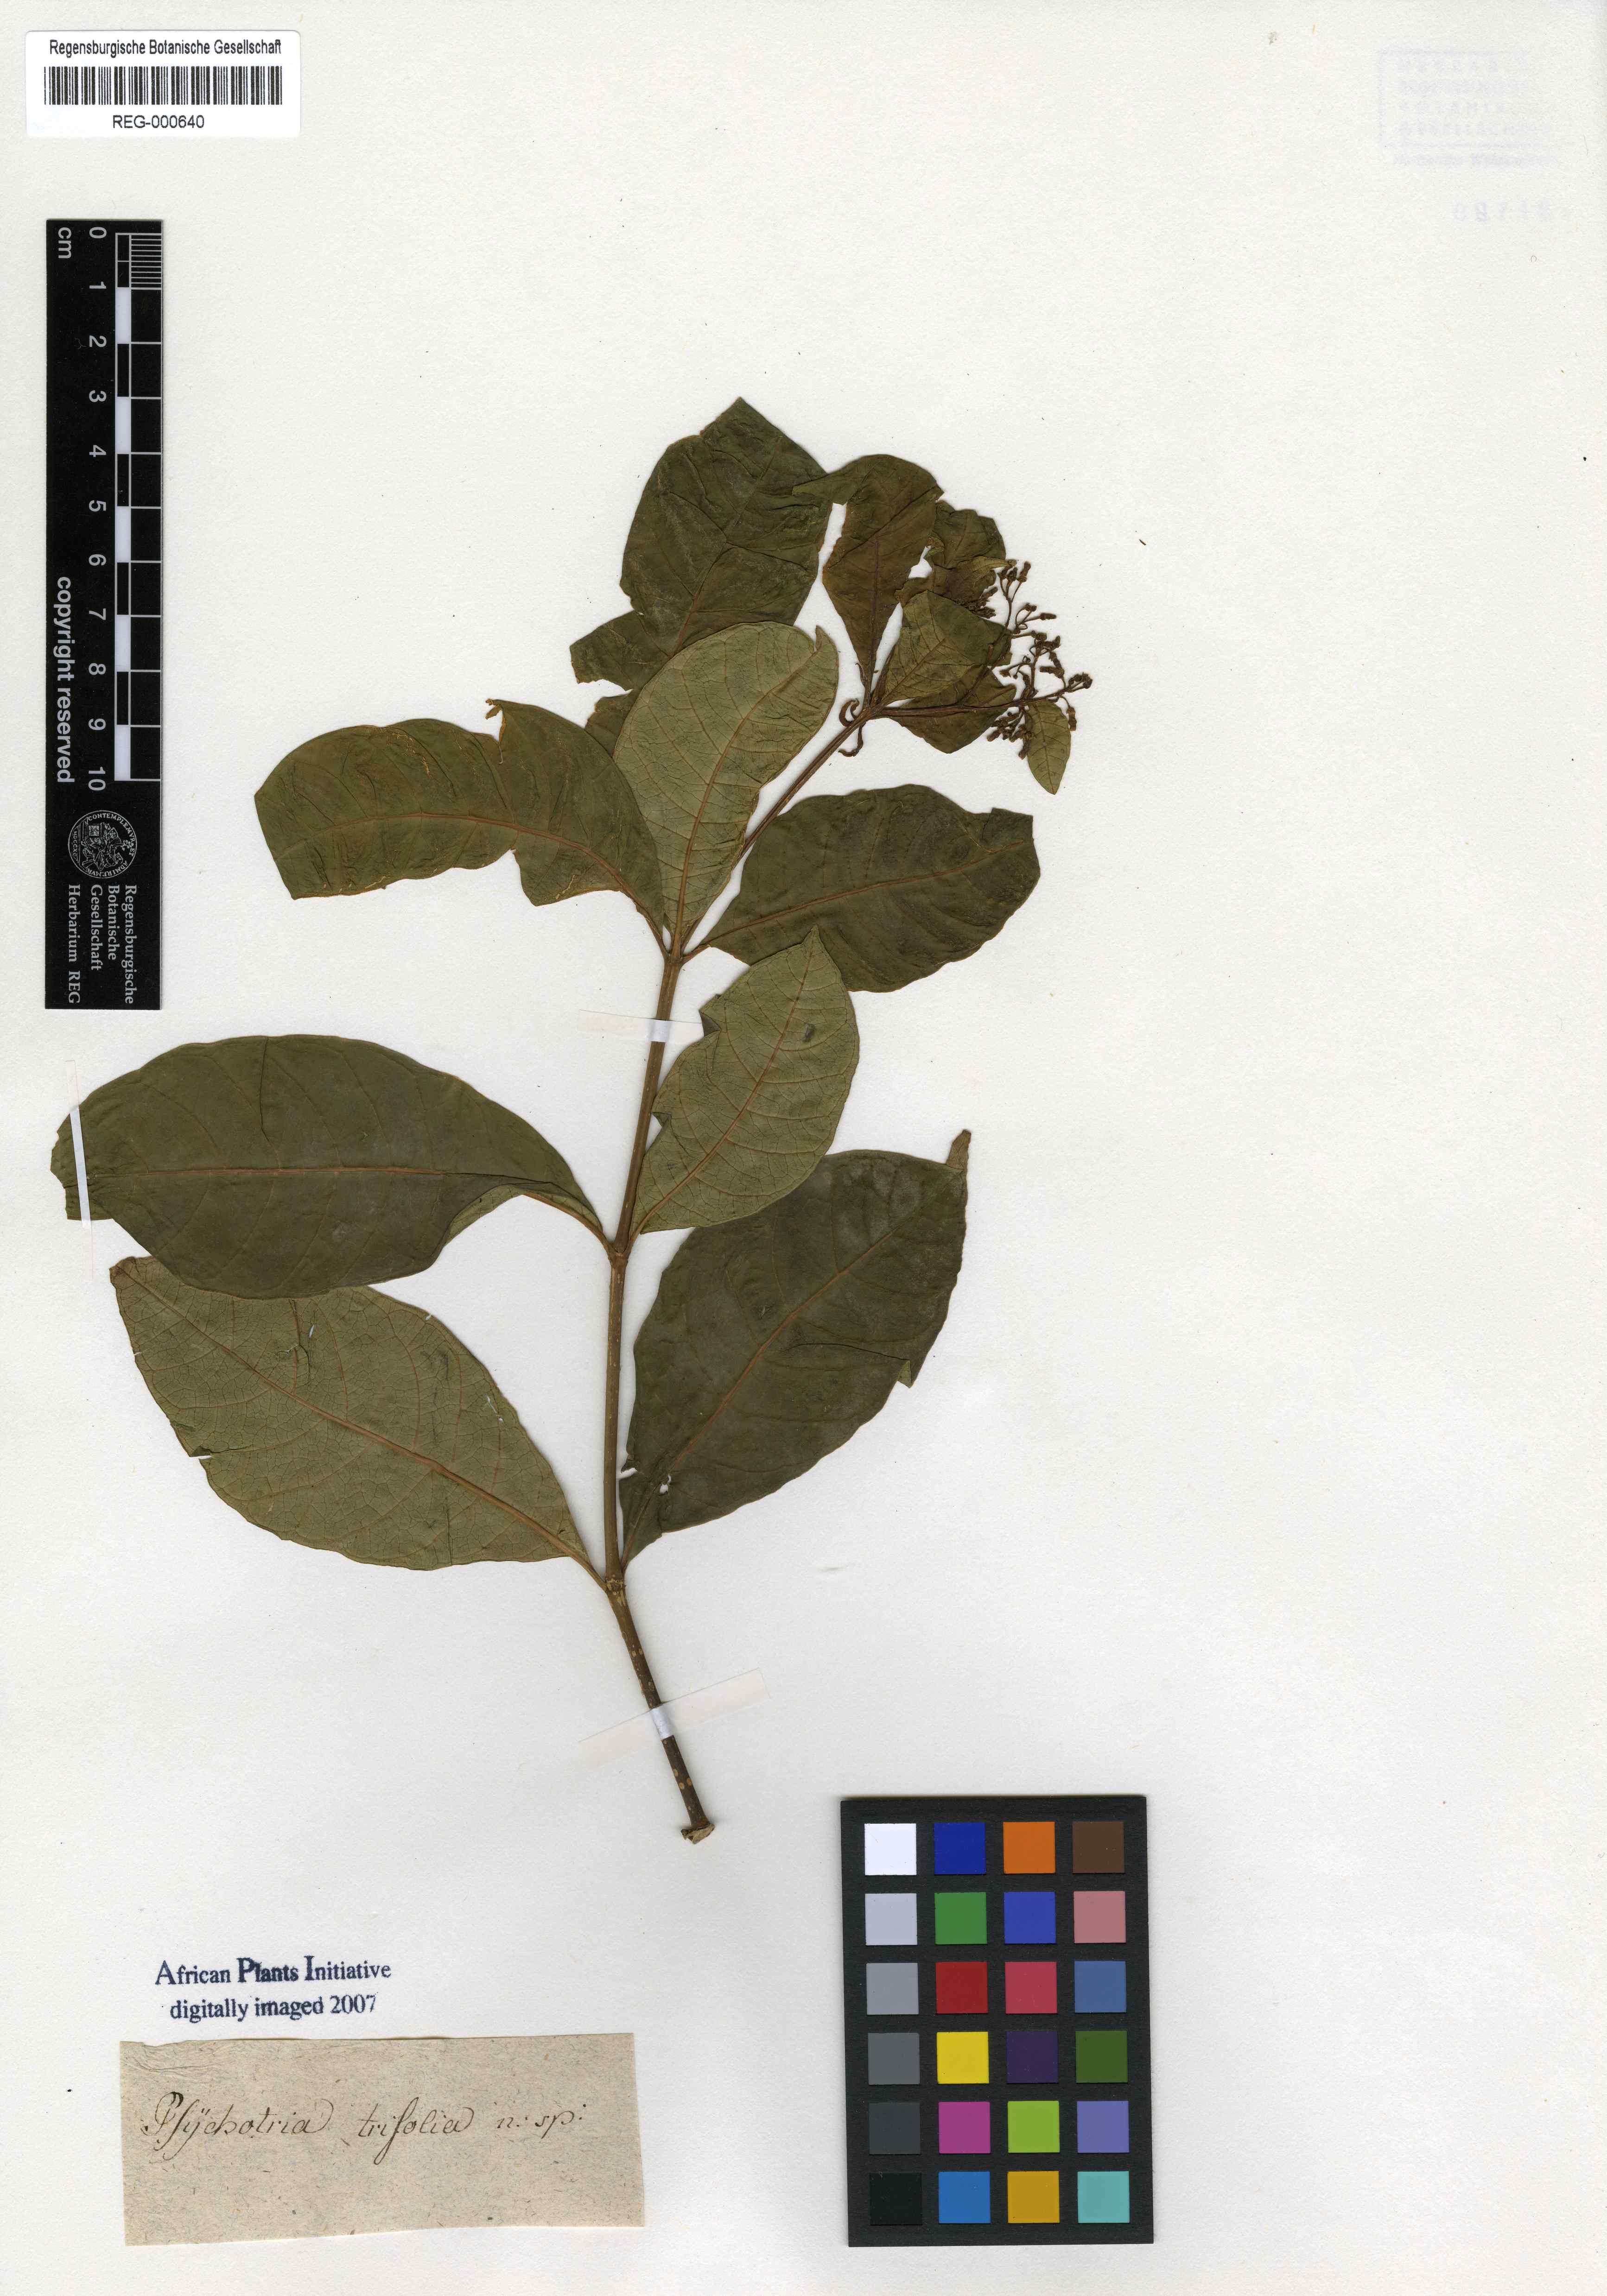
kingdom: Plantae
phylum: Tracheophyta
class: Magnoliopsida
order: Gentianales
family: Apocynaceae
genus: Rauvolfia
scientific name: Rauvolfia viridis
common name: Bellyache
